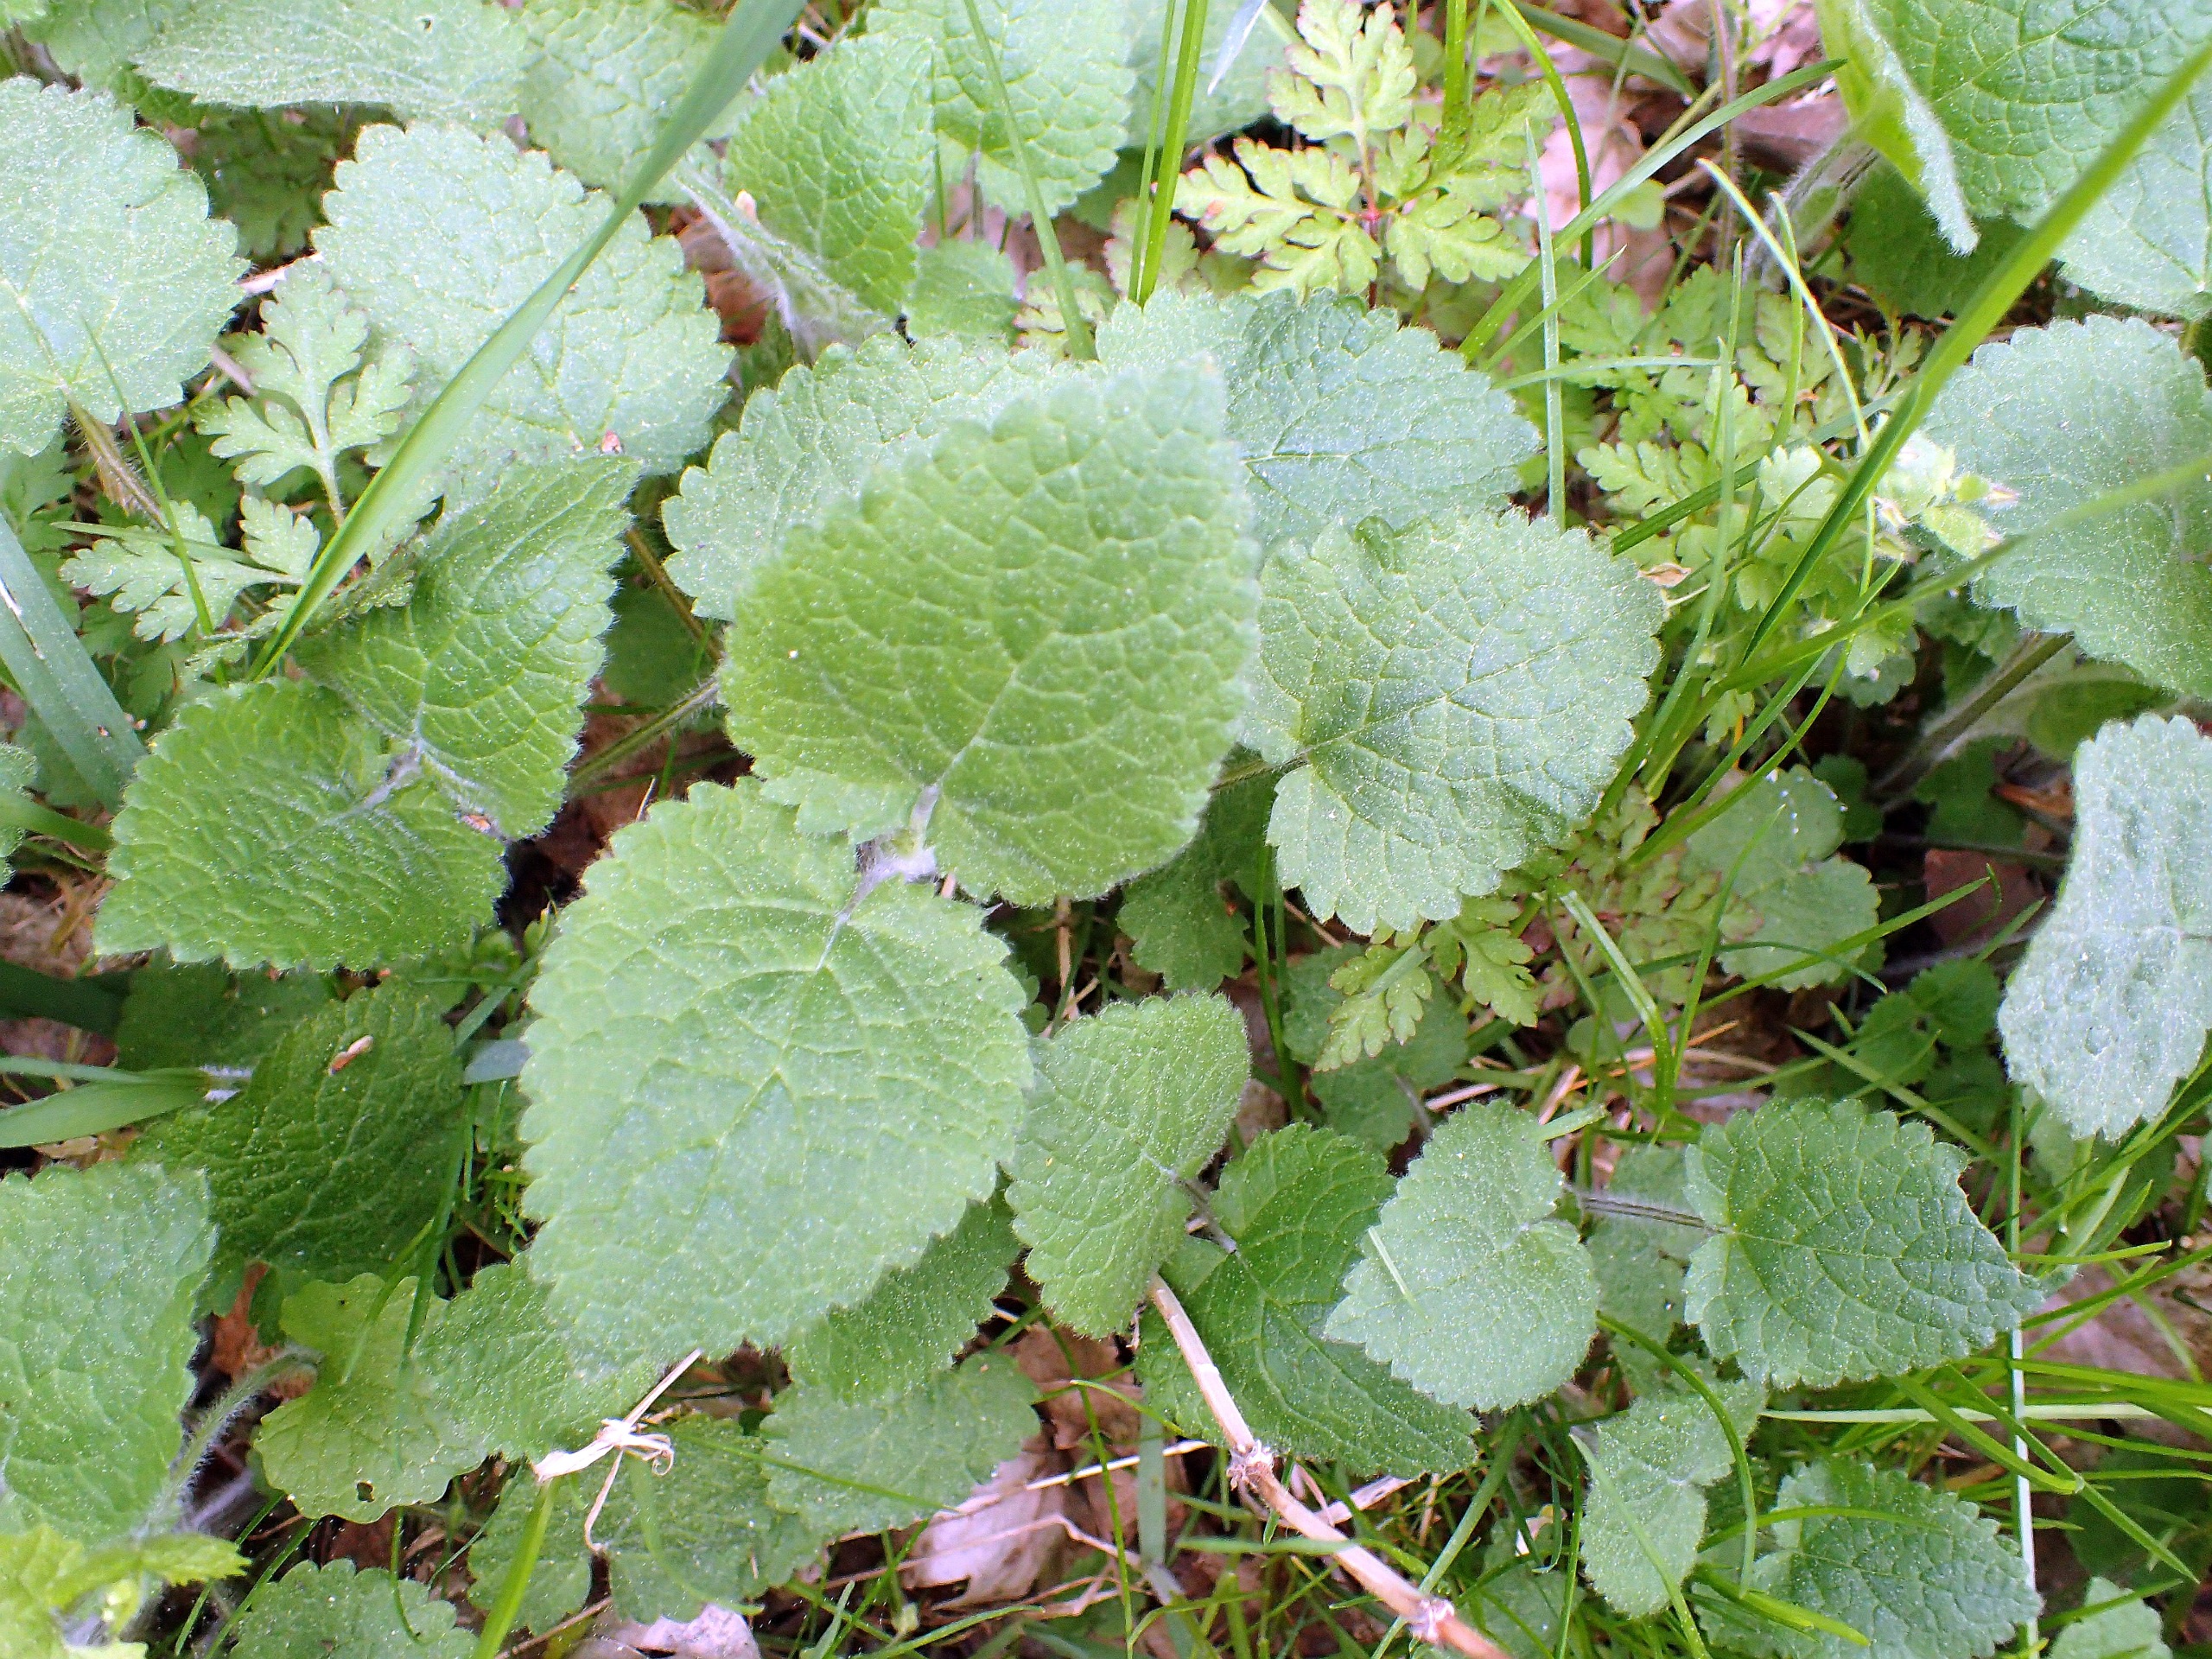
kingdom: Plantae
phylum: Tracheophyta
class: Magnoliopsida
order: Lamiales
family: Lamiaceae
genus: Stachys
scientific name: Stachys sylvatica
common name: Skov-galtetand
